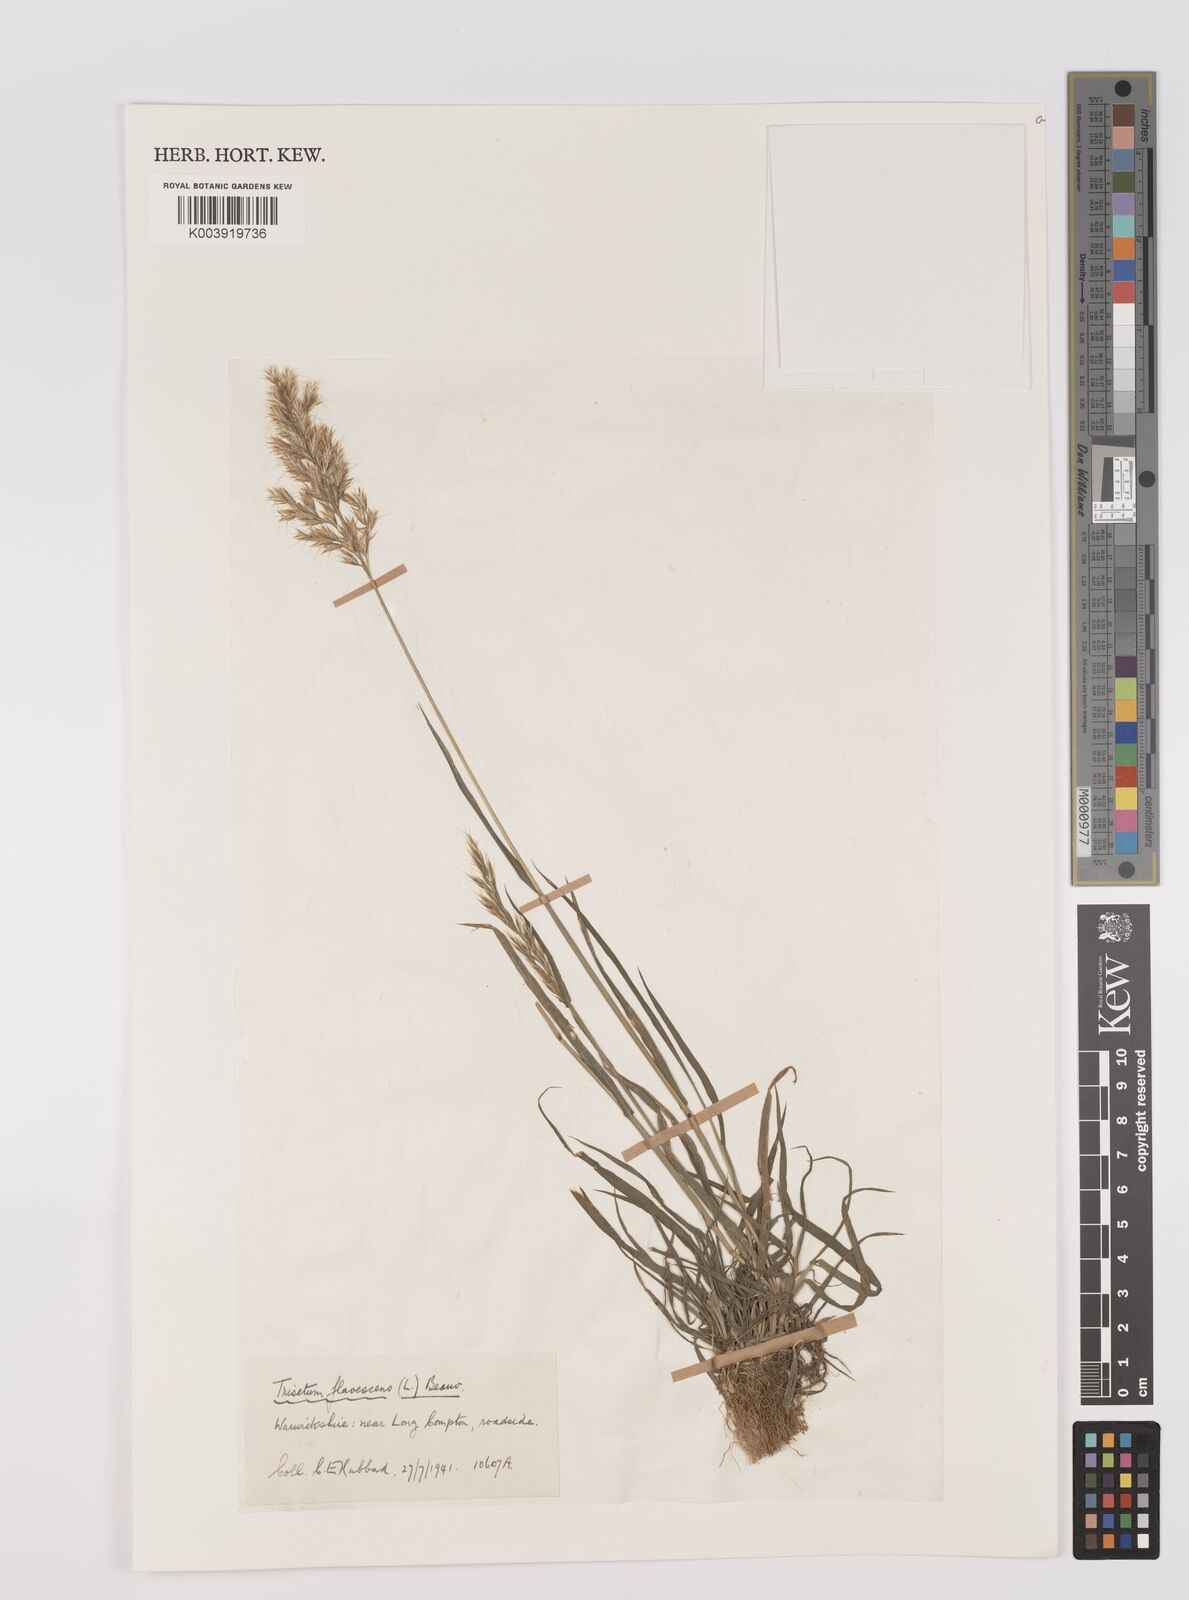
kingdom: Plantae
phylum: Tracheophyta
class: Liliopsida
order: Poales
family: Poaceae
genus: Trisetum
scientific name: Trisetum flavescens
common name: Yellow oat-grass
